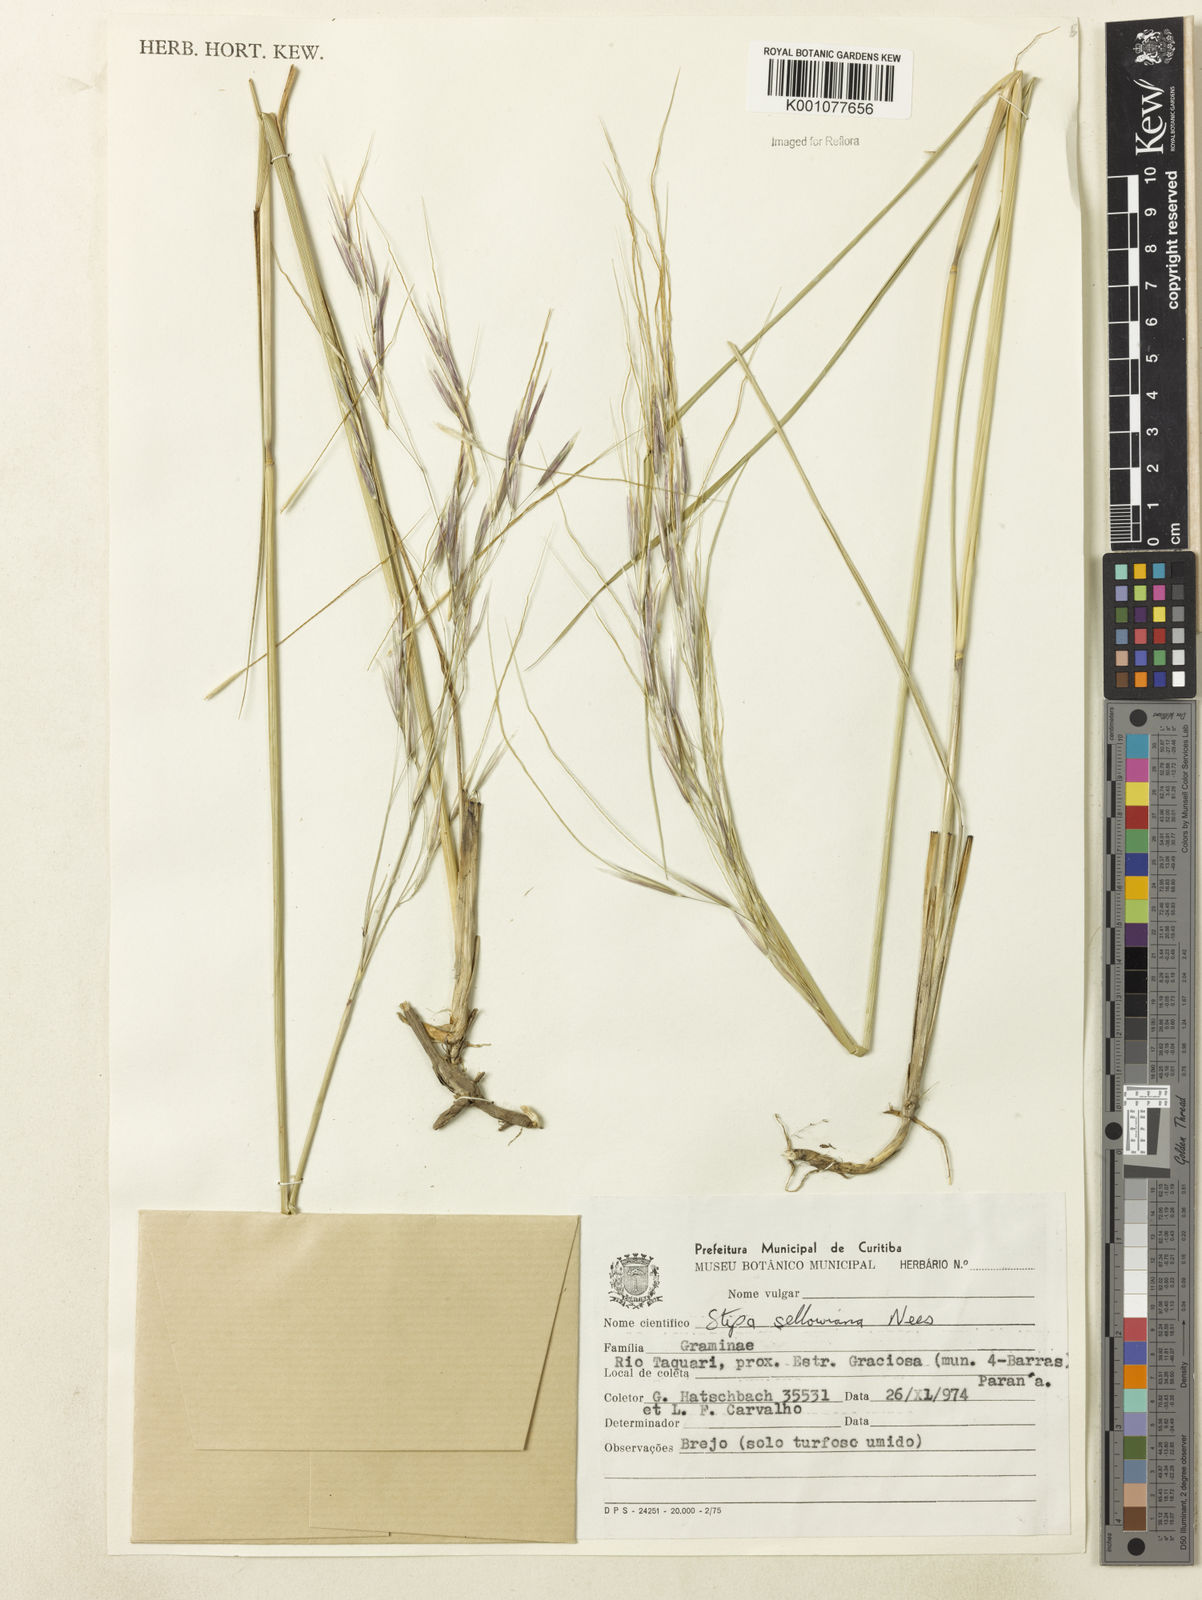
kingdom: Plantae
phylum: Tracheophyta
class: Liliopsida
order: Poales
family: Poaceae
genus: Nassella
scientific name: Nassella
